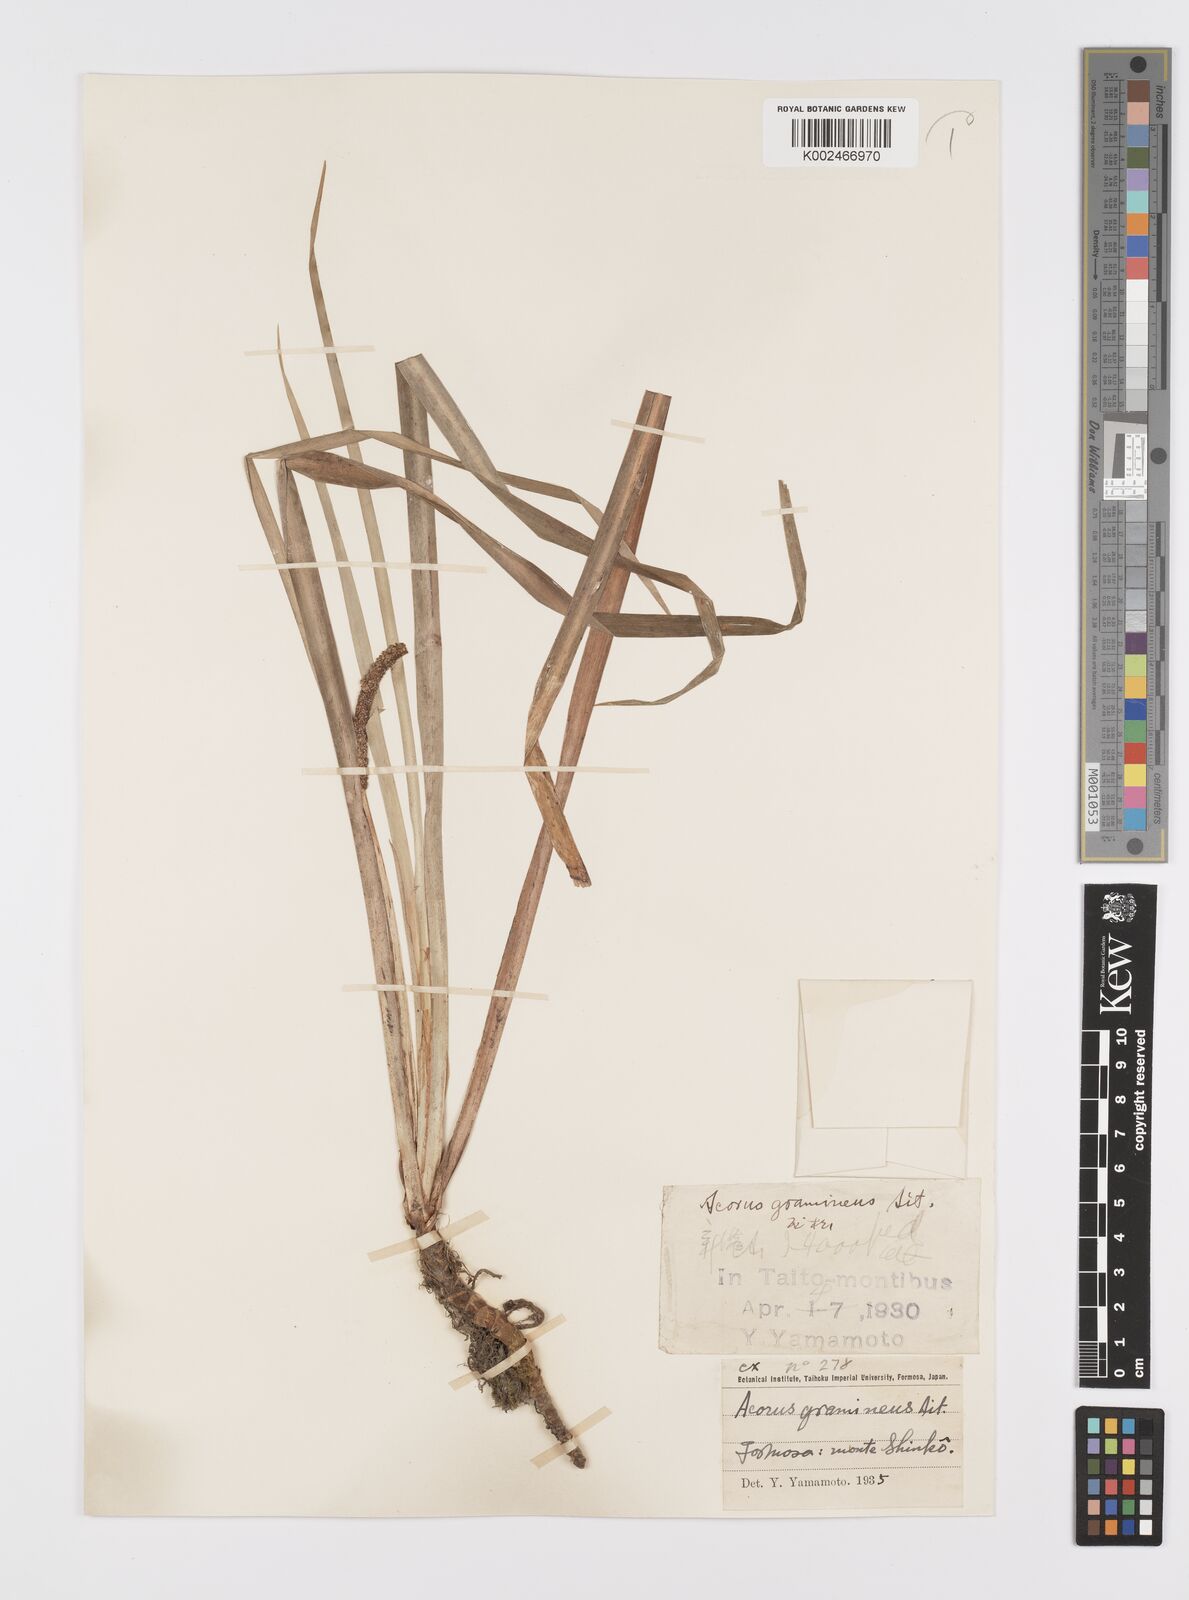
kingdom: Plantae
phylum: Tracheophyta
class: Liliopsida
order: Acorales
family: Acoraceae
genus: Acorus
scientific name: Acorus gramineus
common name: Slender sweet-flag
